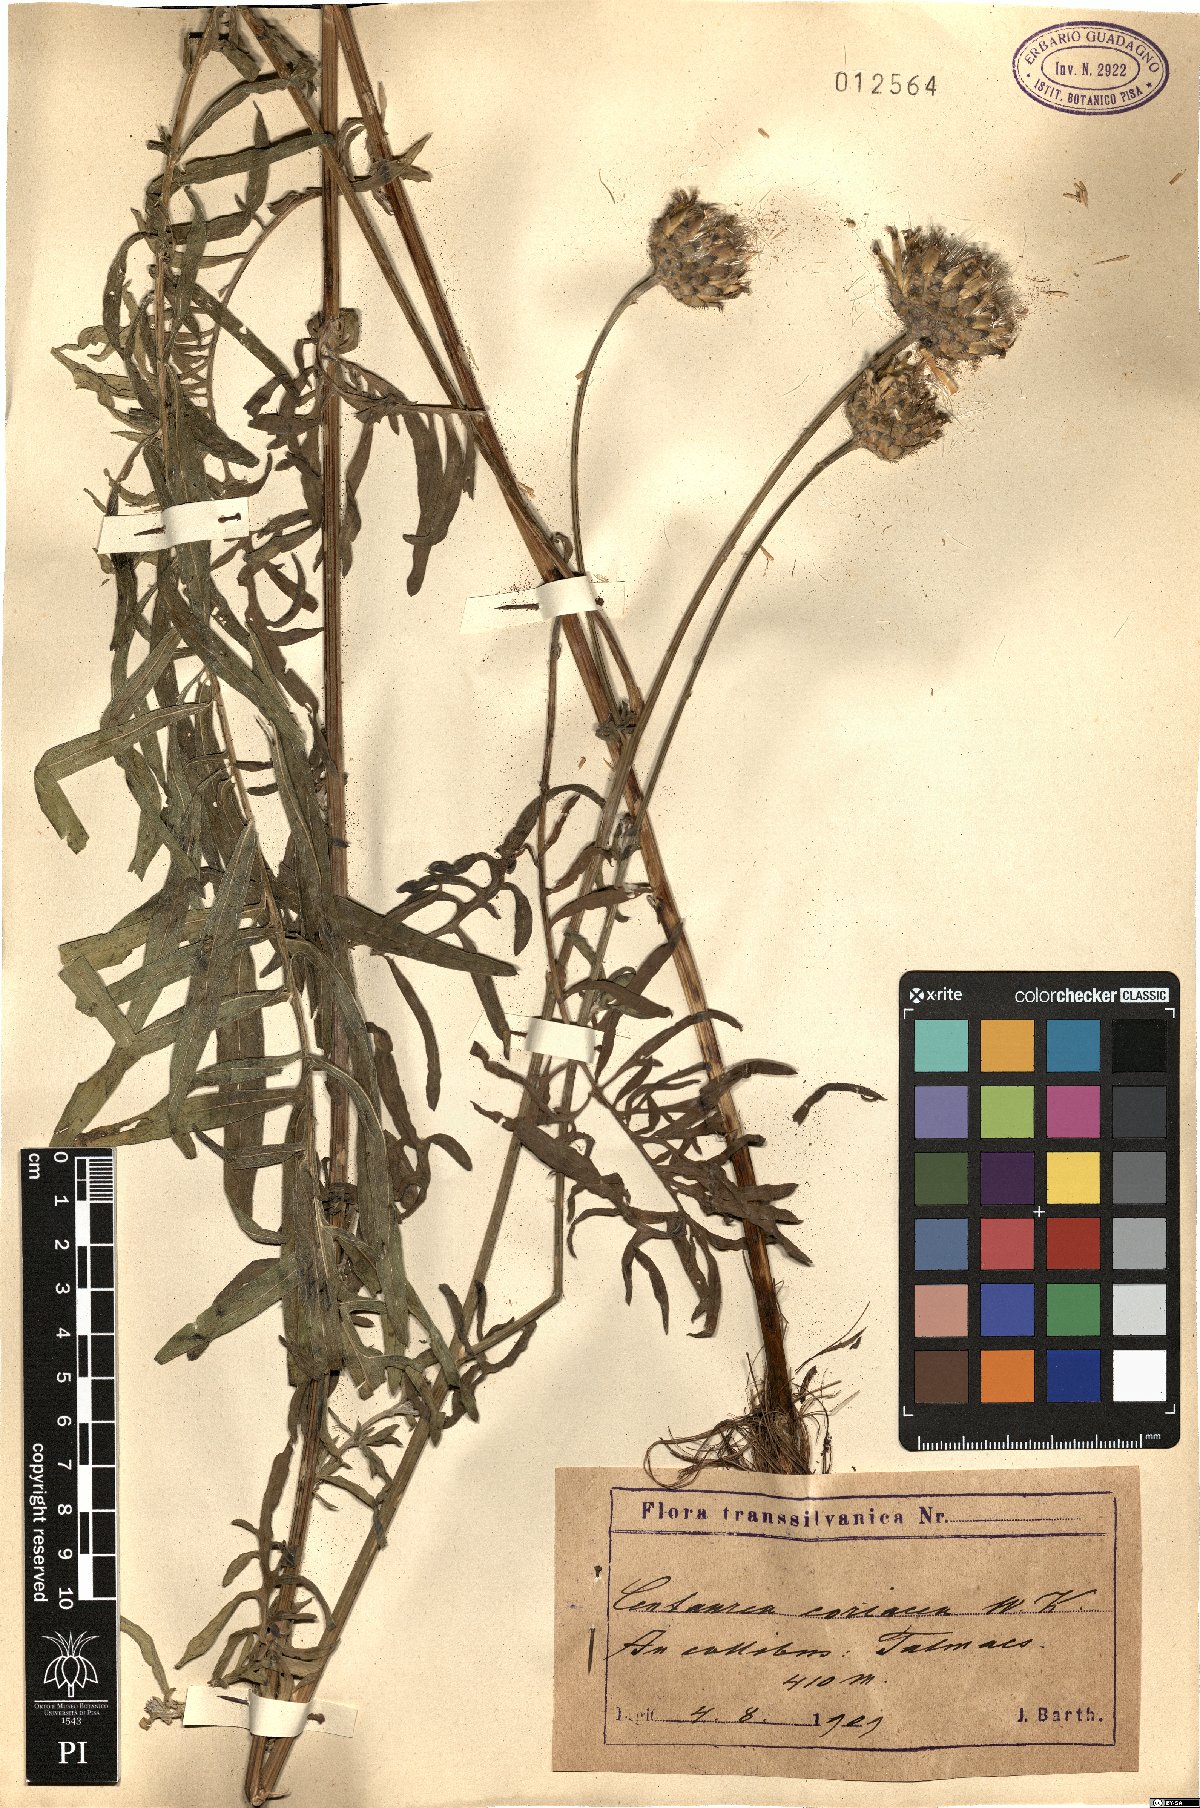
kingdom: Plantae
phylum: Tracheophyta
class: Magnoliopsida
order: Asterales
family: Asteraceae
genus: Centaurea
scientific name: Centaurea scabiosa
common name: Greater knapweed
